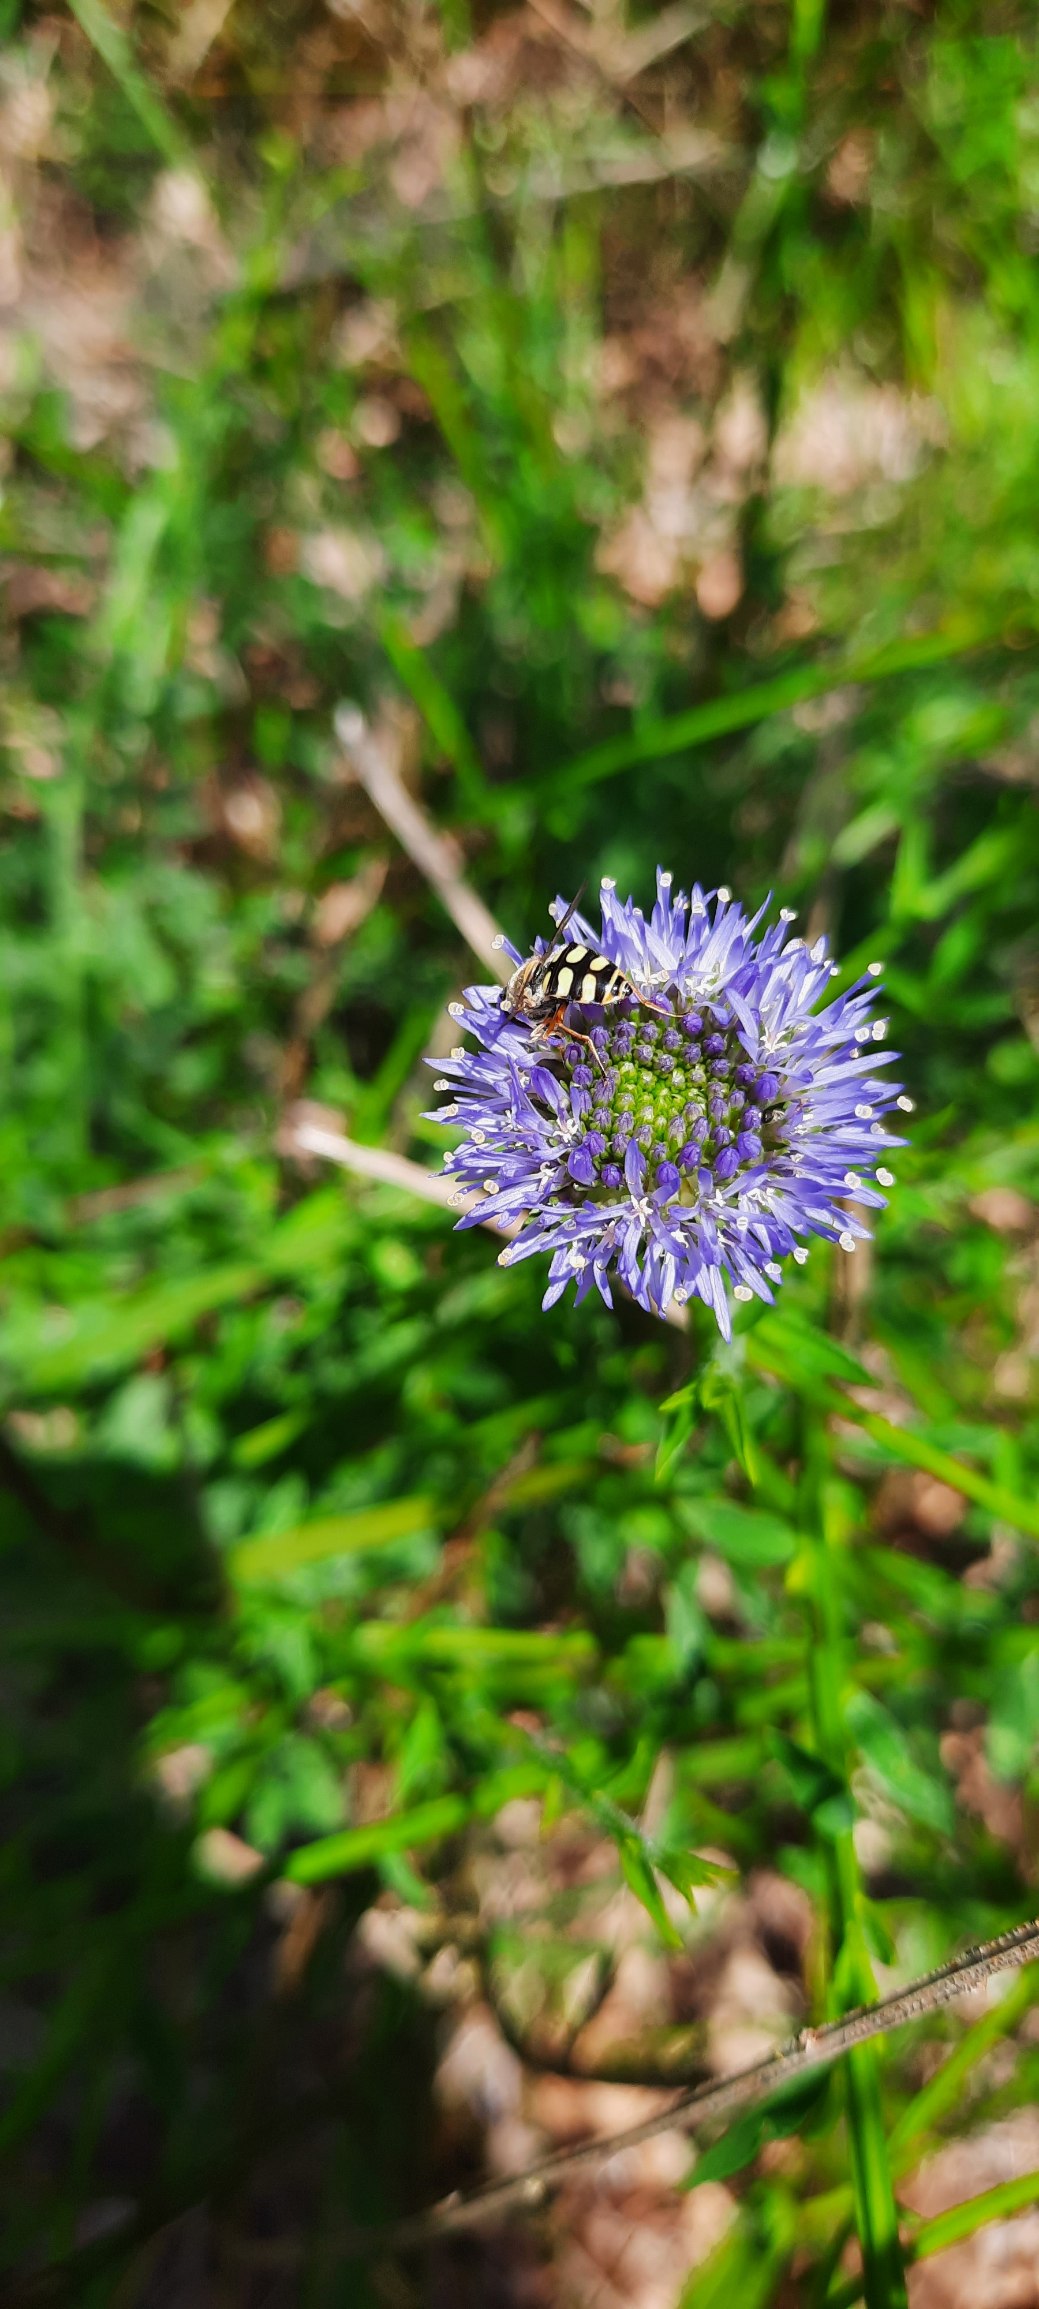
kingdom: Plantae
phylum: Tracheophyta
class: Magnoliopsida
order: Asterales
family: Campanulaceae
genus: Jasione
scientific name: Jasione montana
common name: Blåmunke
